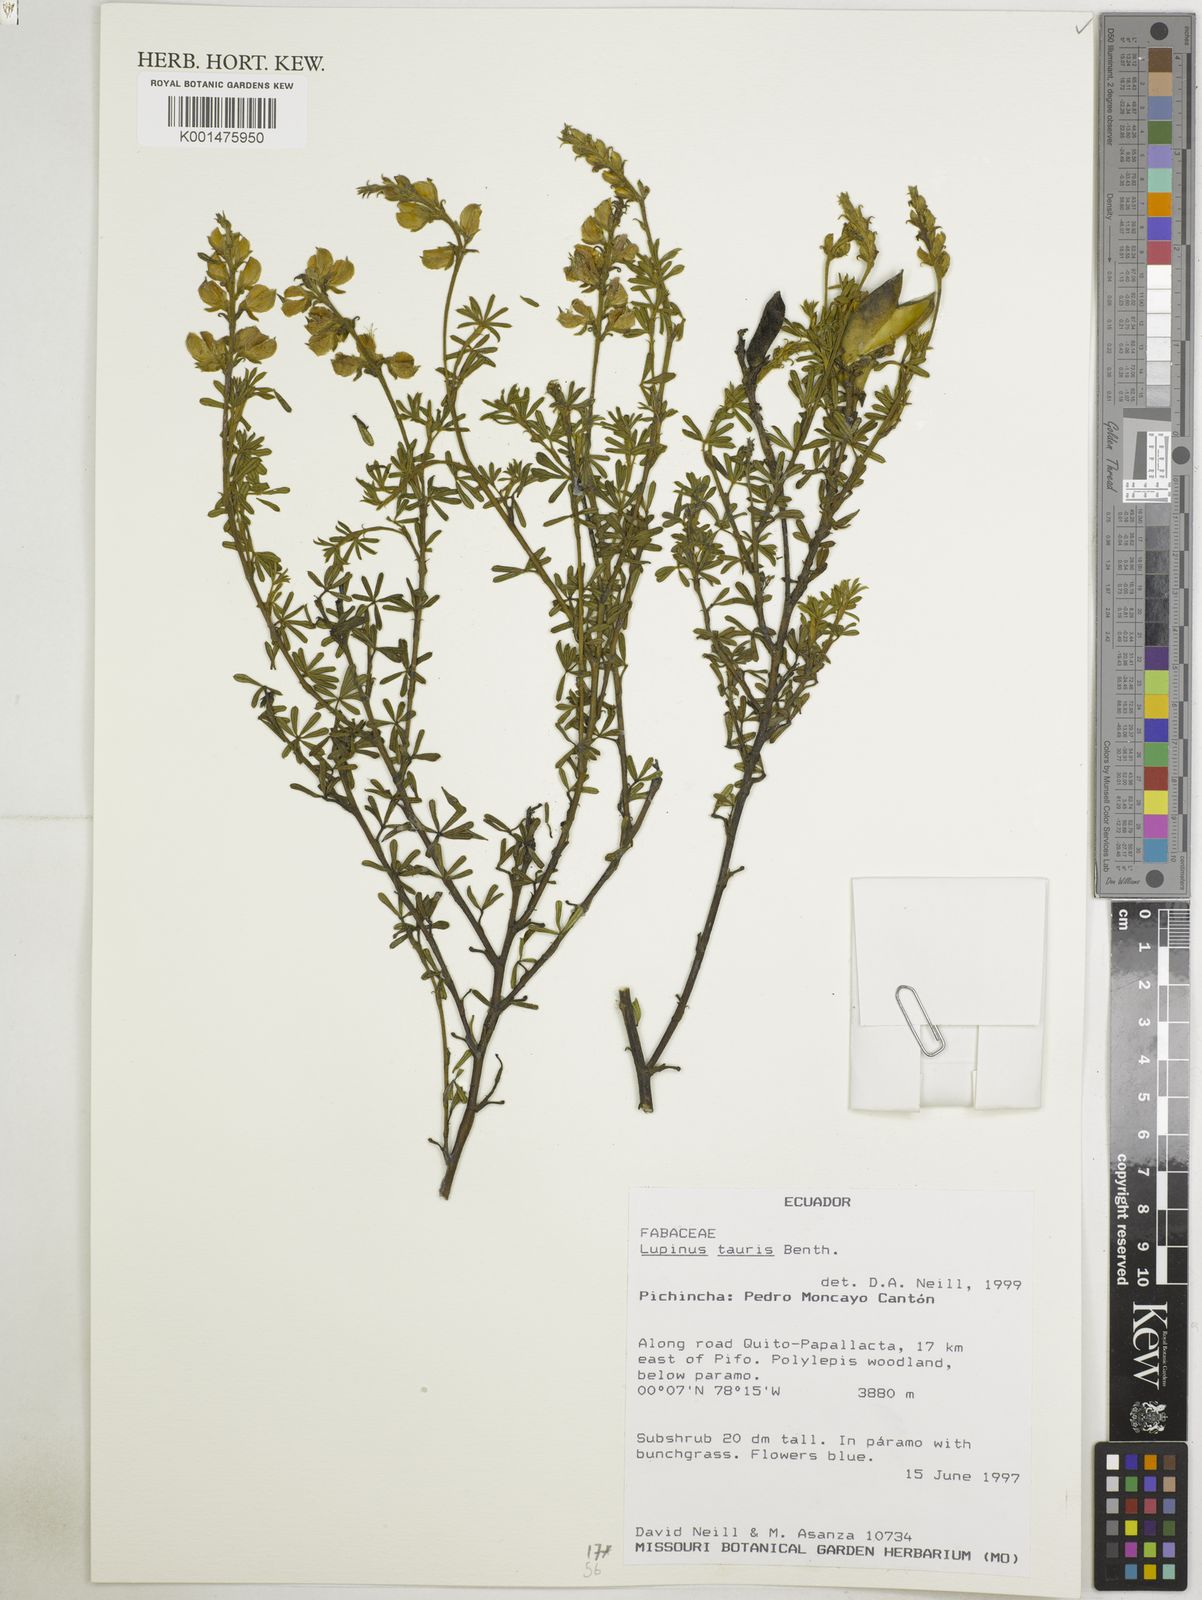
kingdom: Plantae
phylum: Tracheophyta
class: Magnoliopsida
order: Fabales
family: Fabaceae
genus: Lupinus
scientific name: Lupinus tauris
